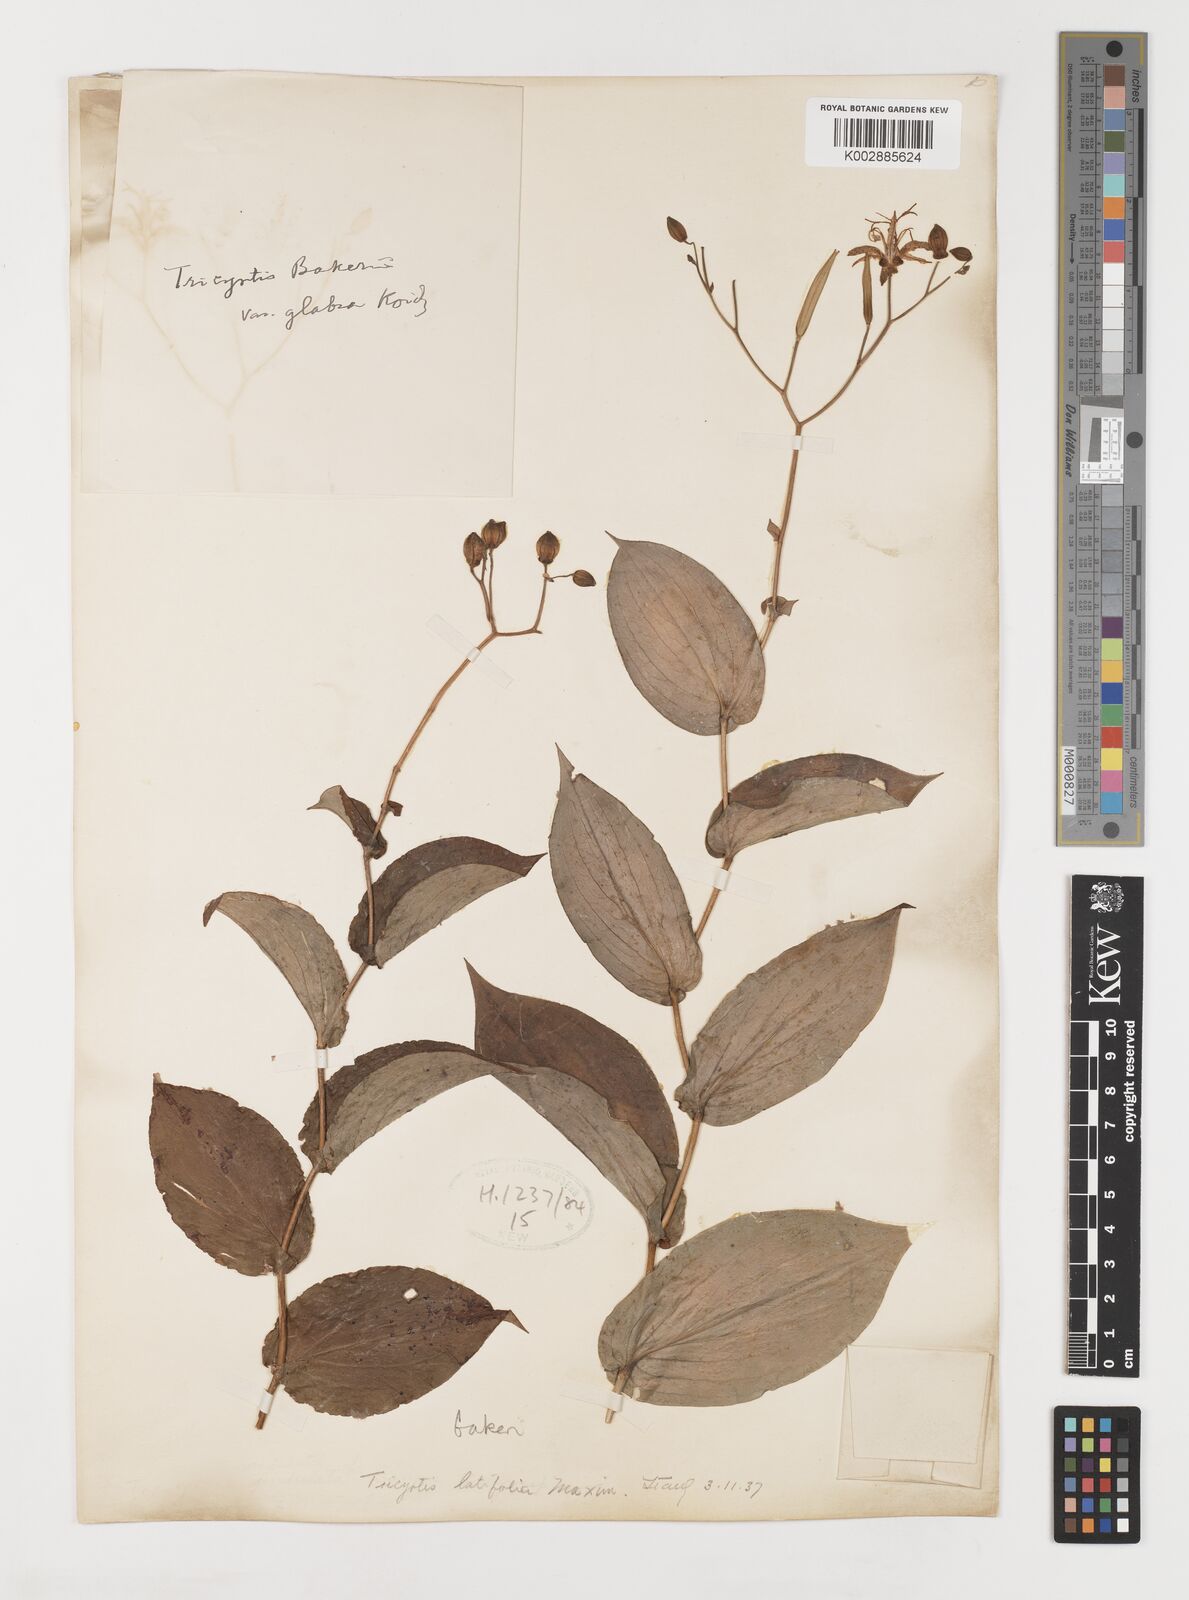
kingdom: Plantae
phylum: Tracheophyta
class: Liliopsida
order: Liliales
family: Liliaceae
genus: Tricyrtis
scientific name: Tricyrtis latifolia
